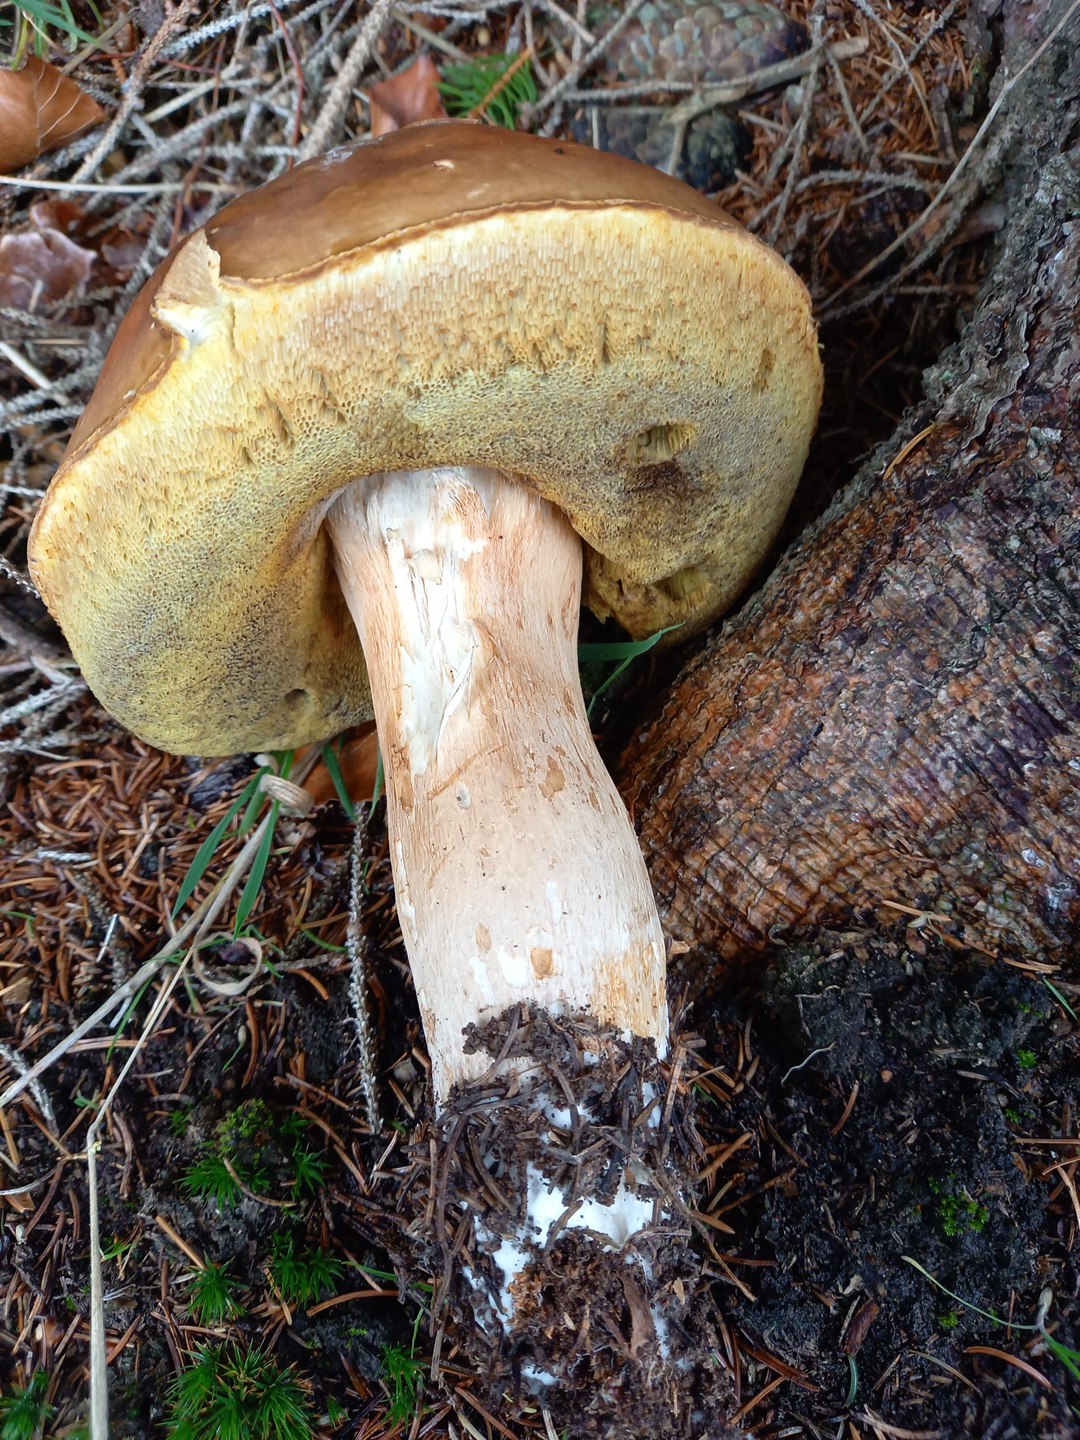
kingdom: Fungi
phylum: Basidiomycota
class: Agaricomycetes
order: Boletales
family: Boletaceae
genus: Boletus
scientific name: Boletus edulis
